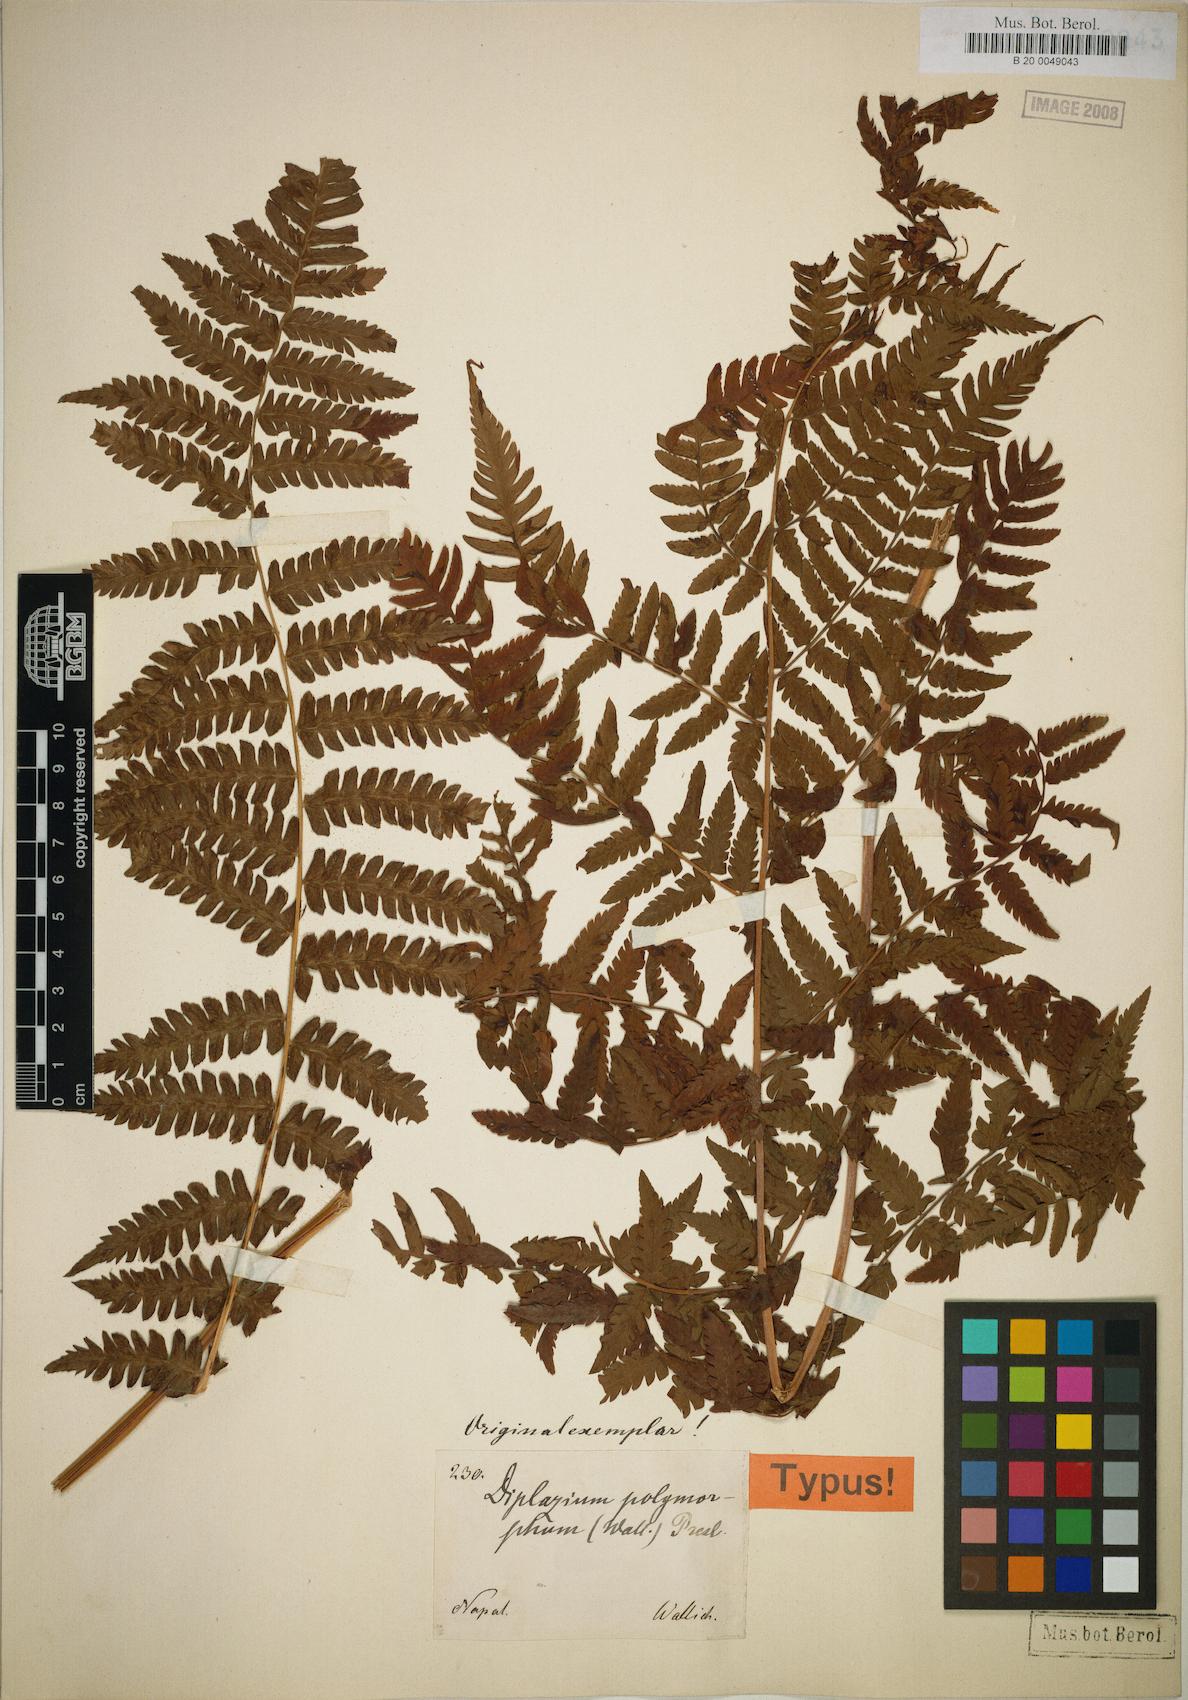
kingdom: Plantae
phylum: Tracheophyta
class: Polypodiopsida
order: Polypodiales
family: Athyriaceae
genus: Diplazium
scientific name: Diplazium maximum
